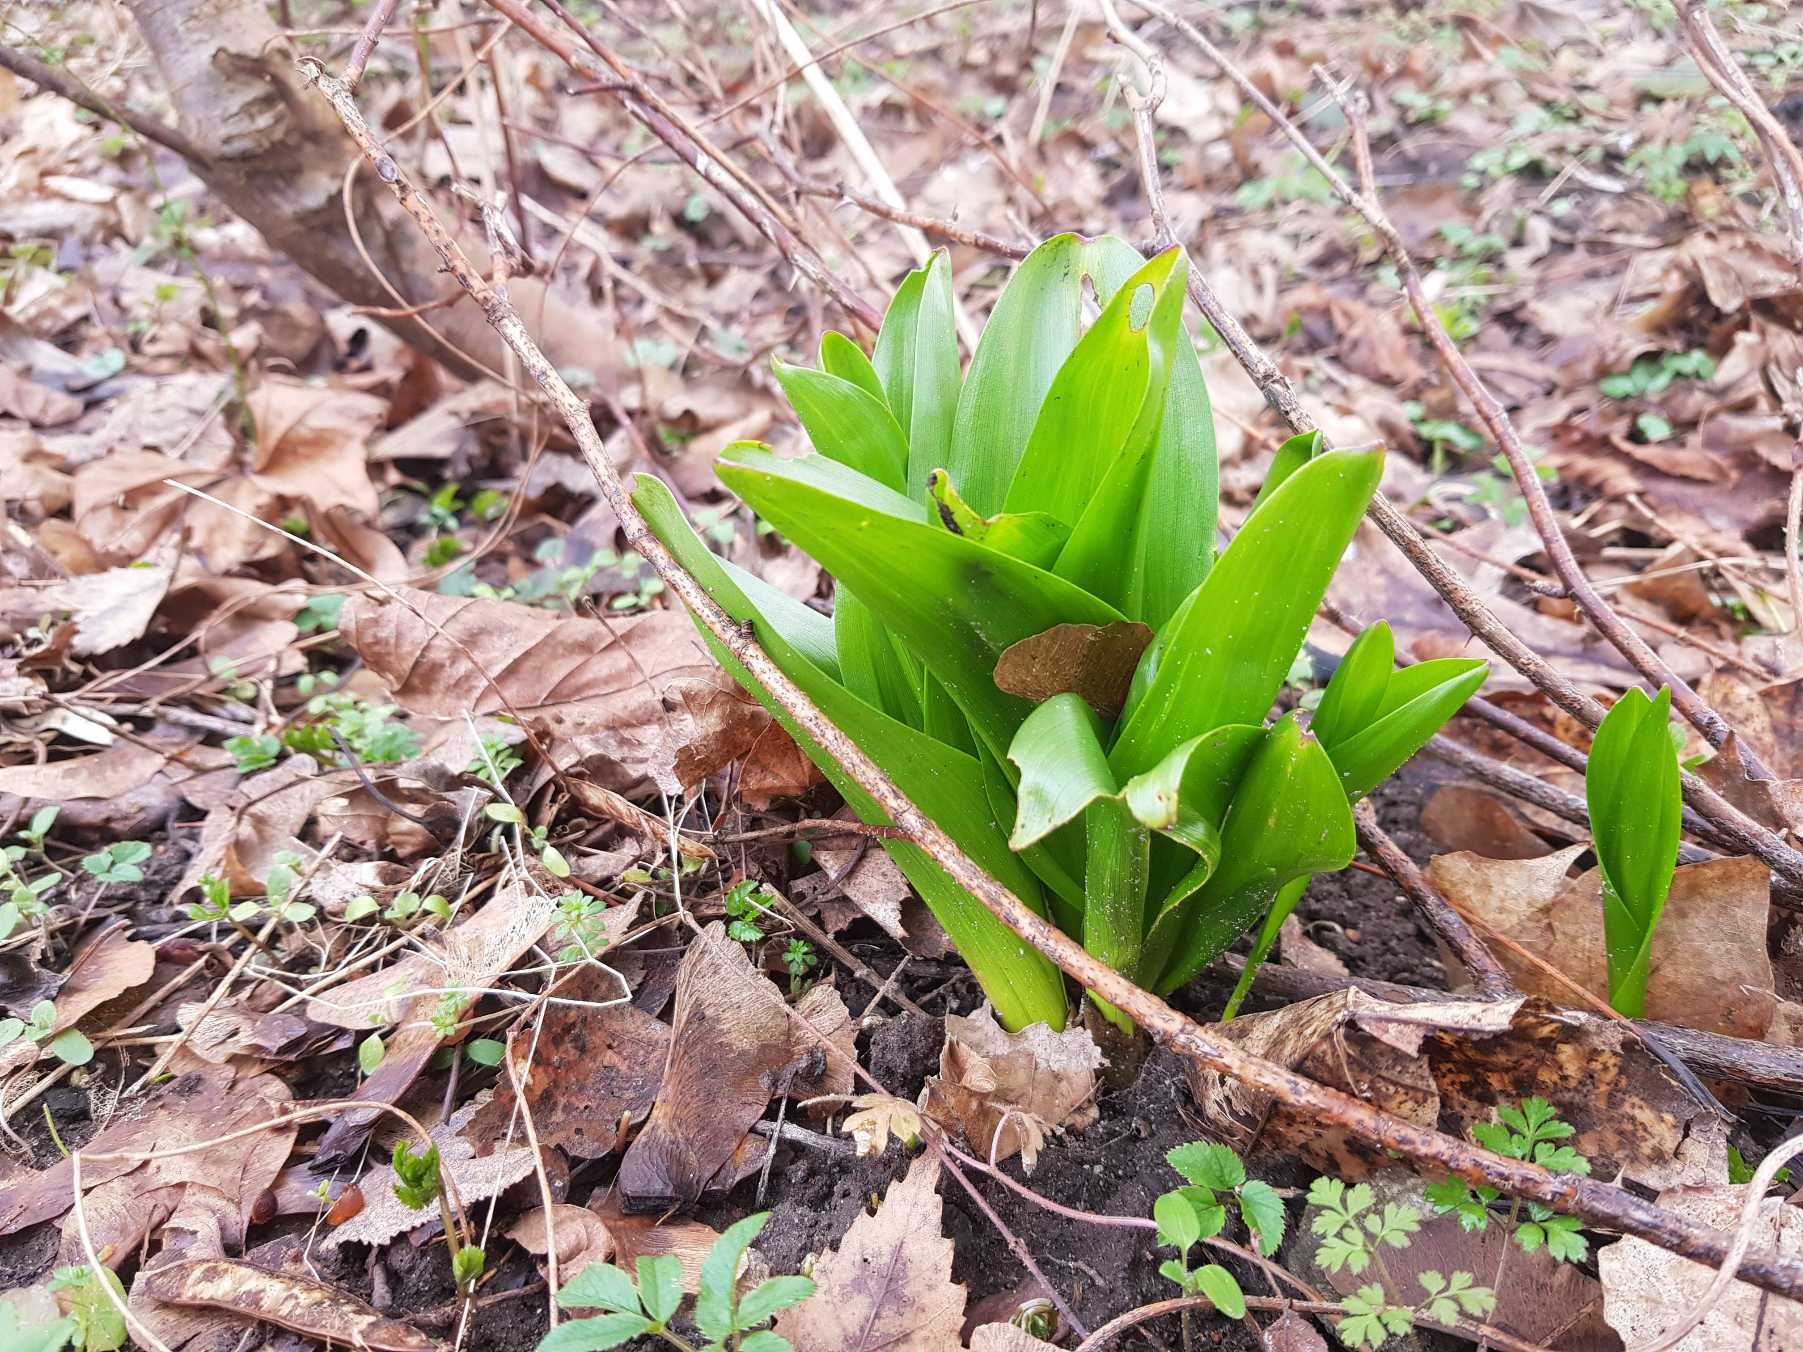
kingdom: Plantae
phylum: Tracheophyta
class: Liliopsida
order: Liliales
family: Colchicaceae
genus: Colchicum
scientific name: Colchicum autumnale
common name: Høst-tidløs
